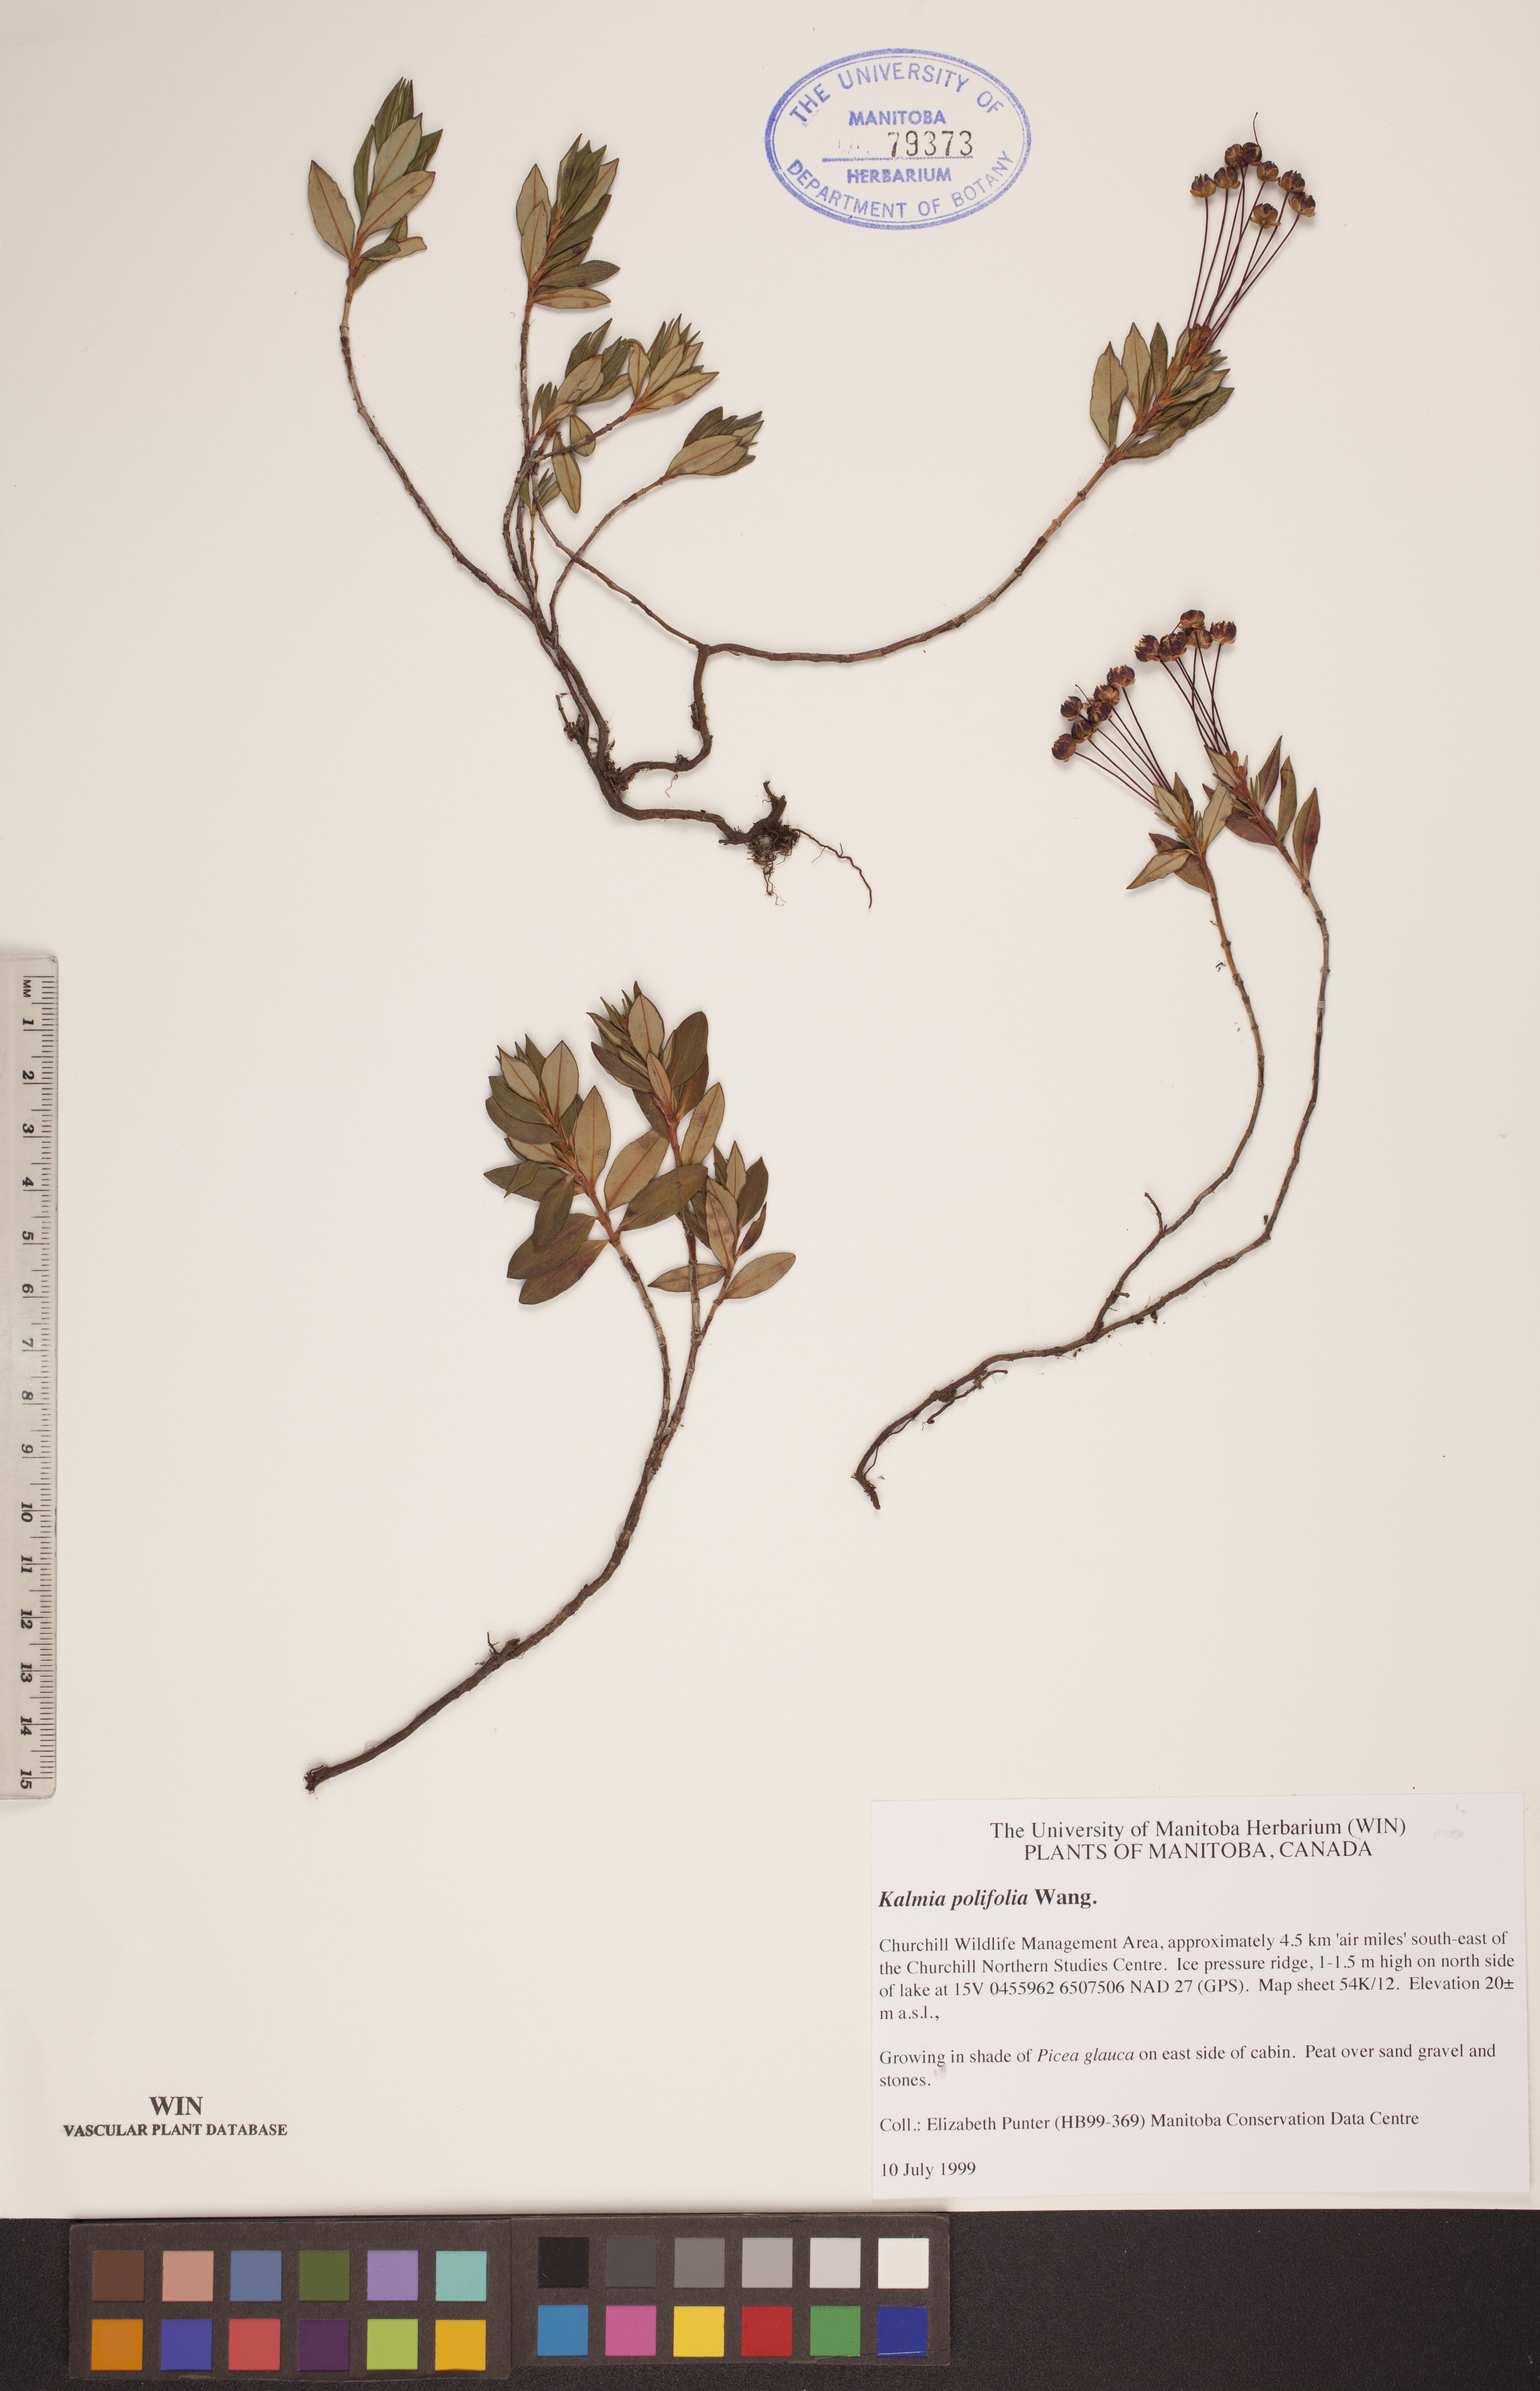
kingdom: Plantae
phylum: Tracheophyta
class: Magnoliopsida
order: Ericales
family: Ericaceae
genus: Kalmia
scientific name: Kalmia polifolia
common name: Bog-laurel
